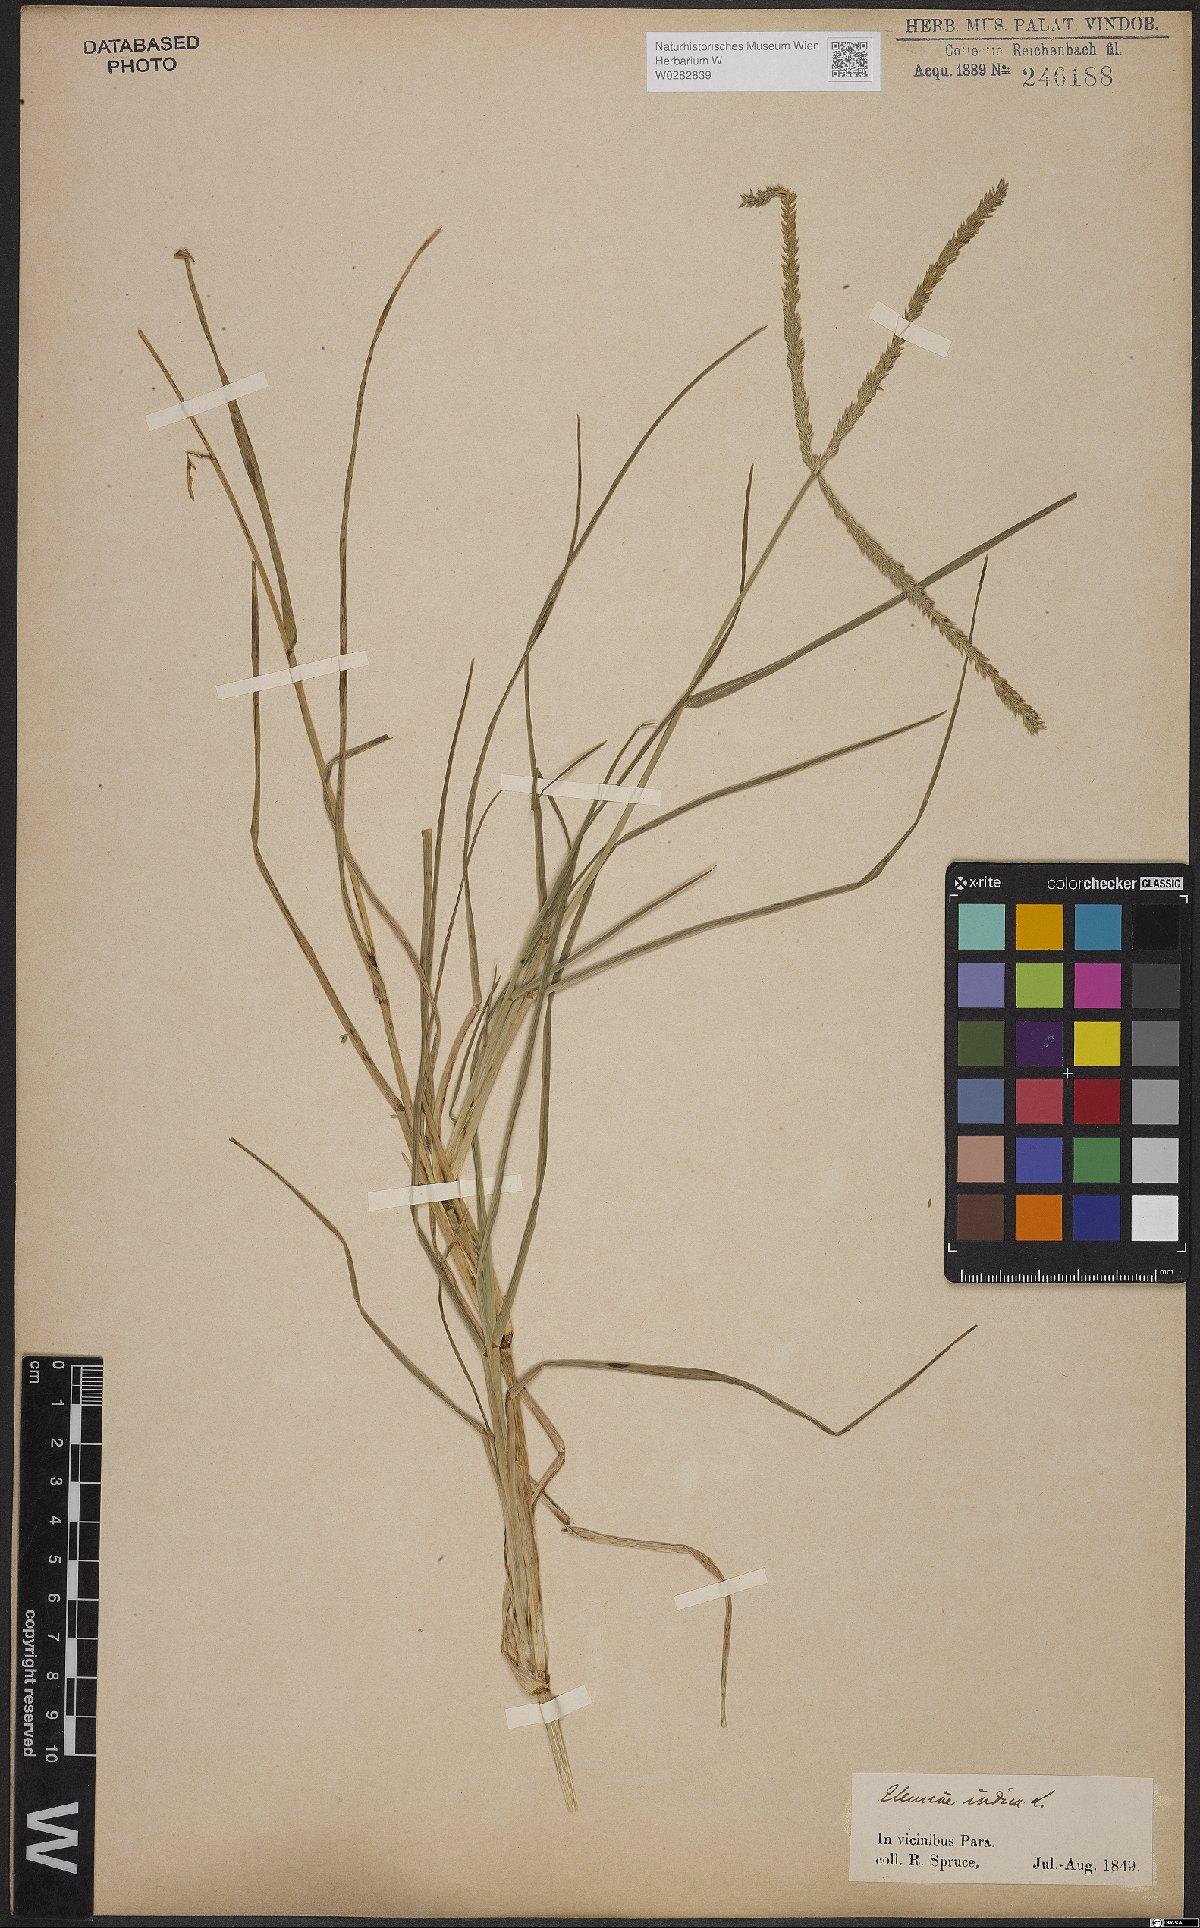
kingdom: Plantae
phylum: Tracheophyta
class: Liliopsida
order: Poales
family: Poaceae
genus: Eleusine
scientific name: Eleusine indica
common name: Yard-grass
